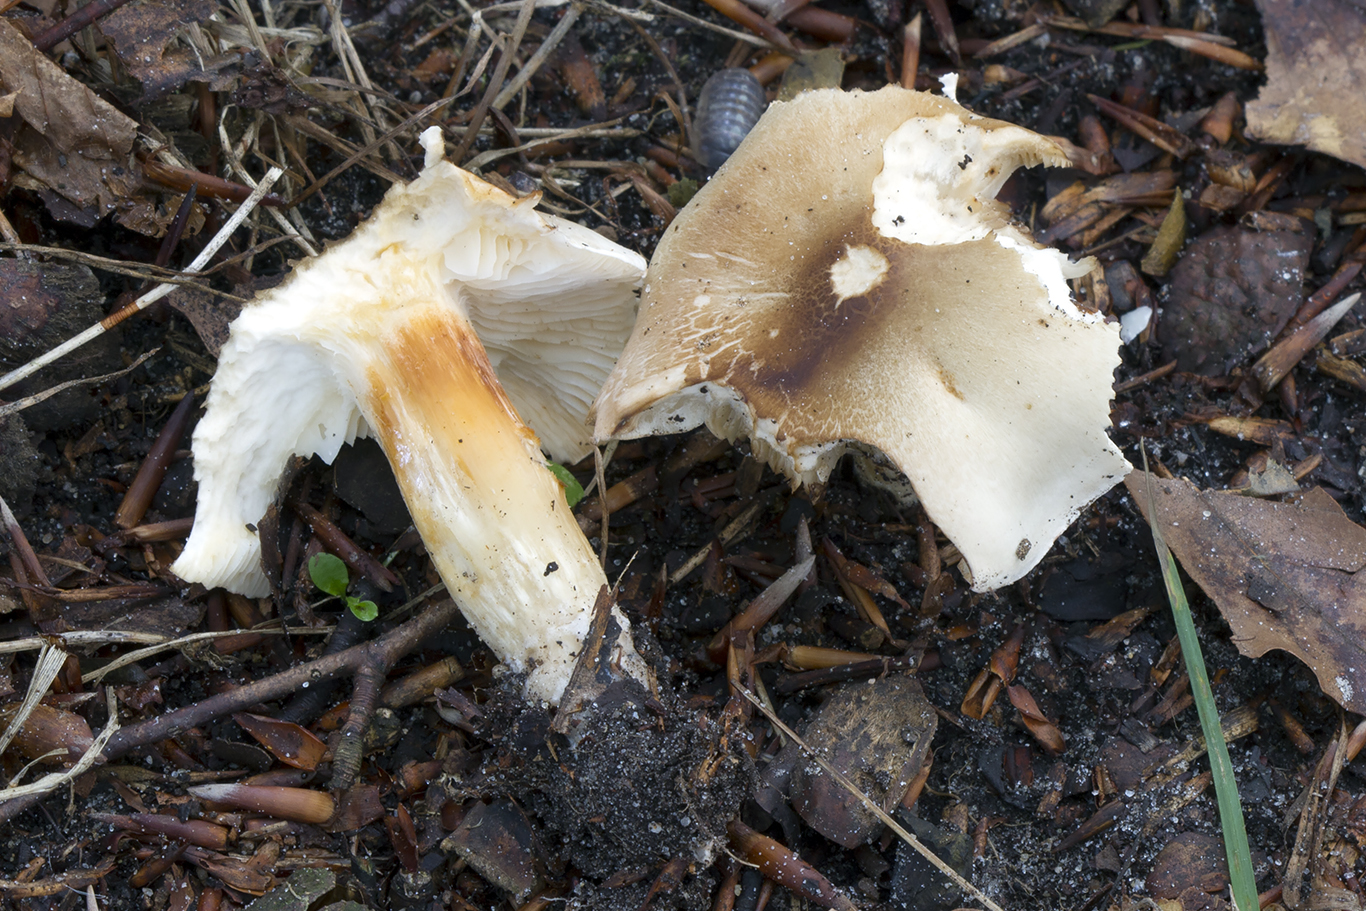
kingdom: Fungi
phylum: Basidiomycota
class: Agaricomycetes
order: Agaricales
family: Tricholomataceae
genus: Tricholoma
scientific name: Tricholoma saponaceum
